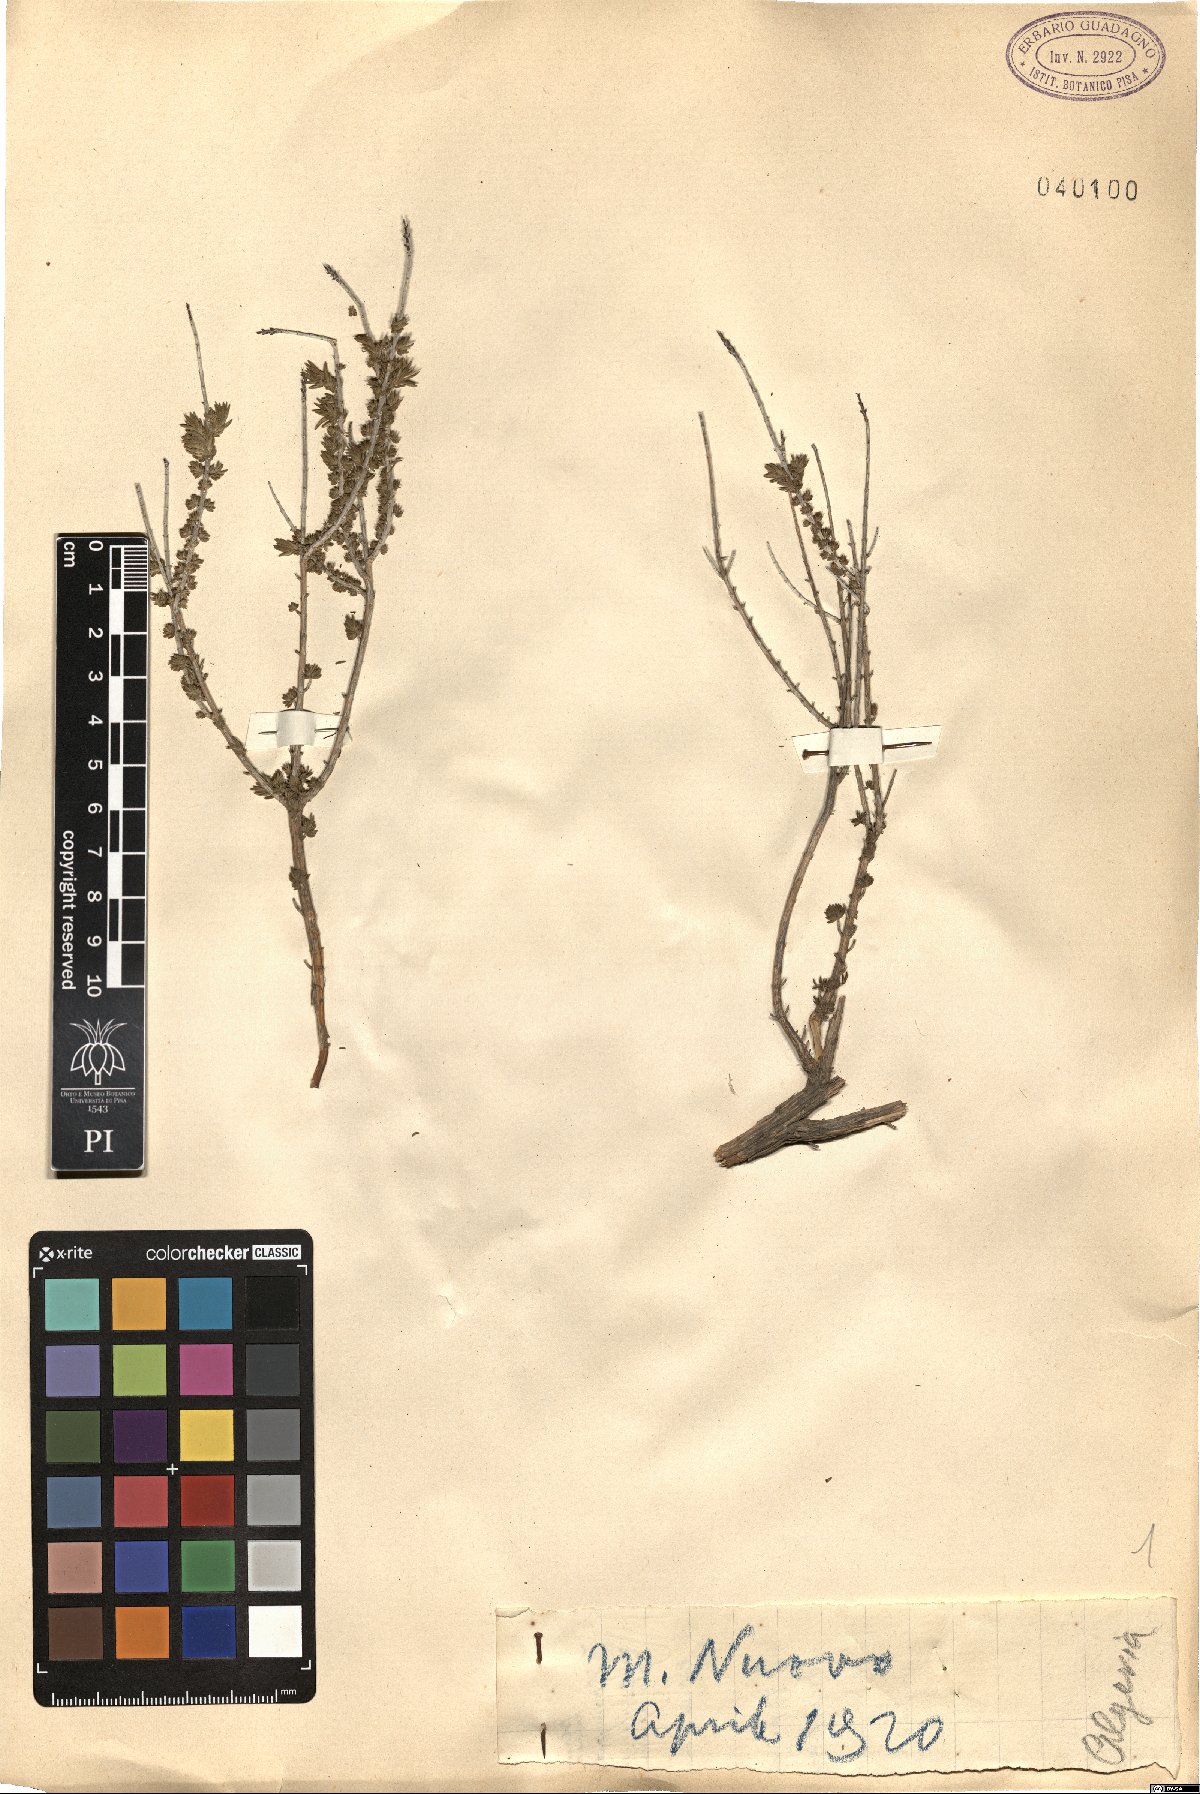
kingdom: Plantae
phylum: Tracheophyta
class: Magnoliopsida
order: Lamiales
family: Lamiaceae
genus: Satureja
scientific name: Satureja
